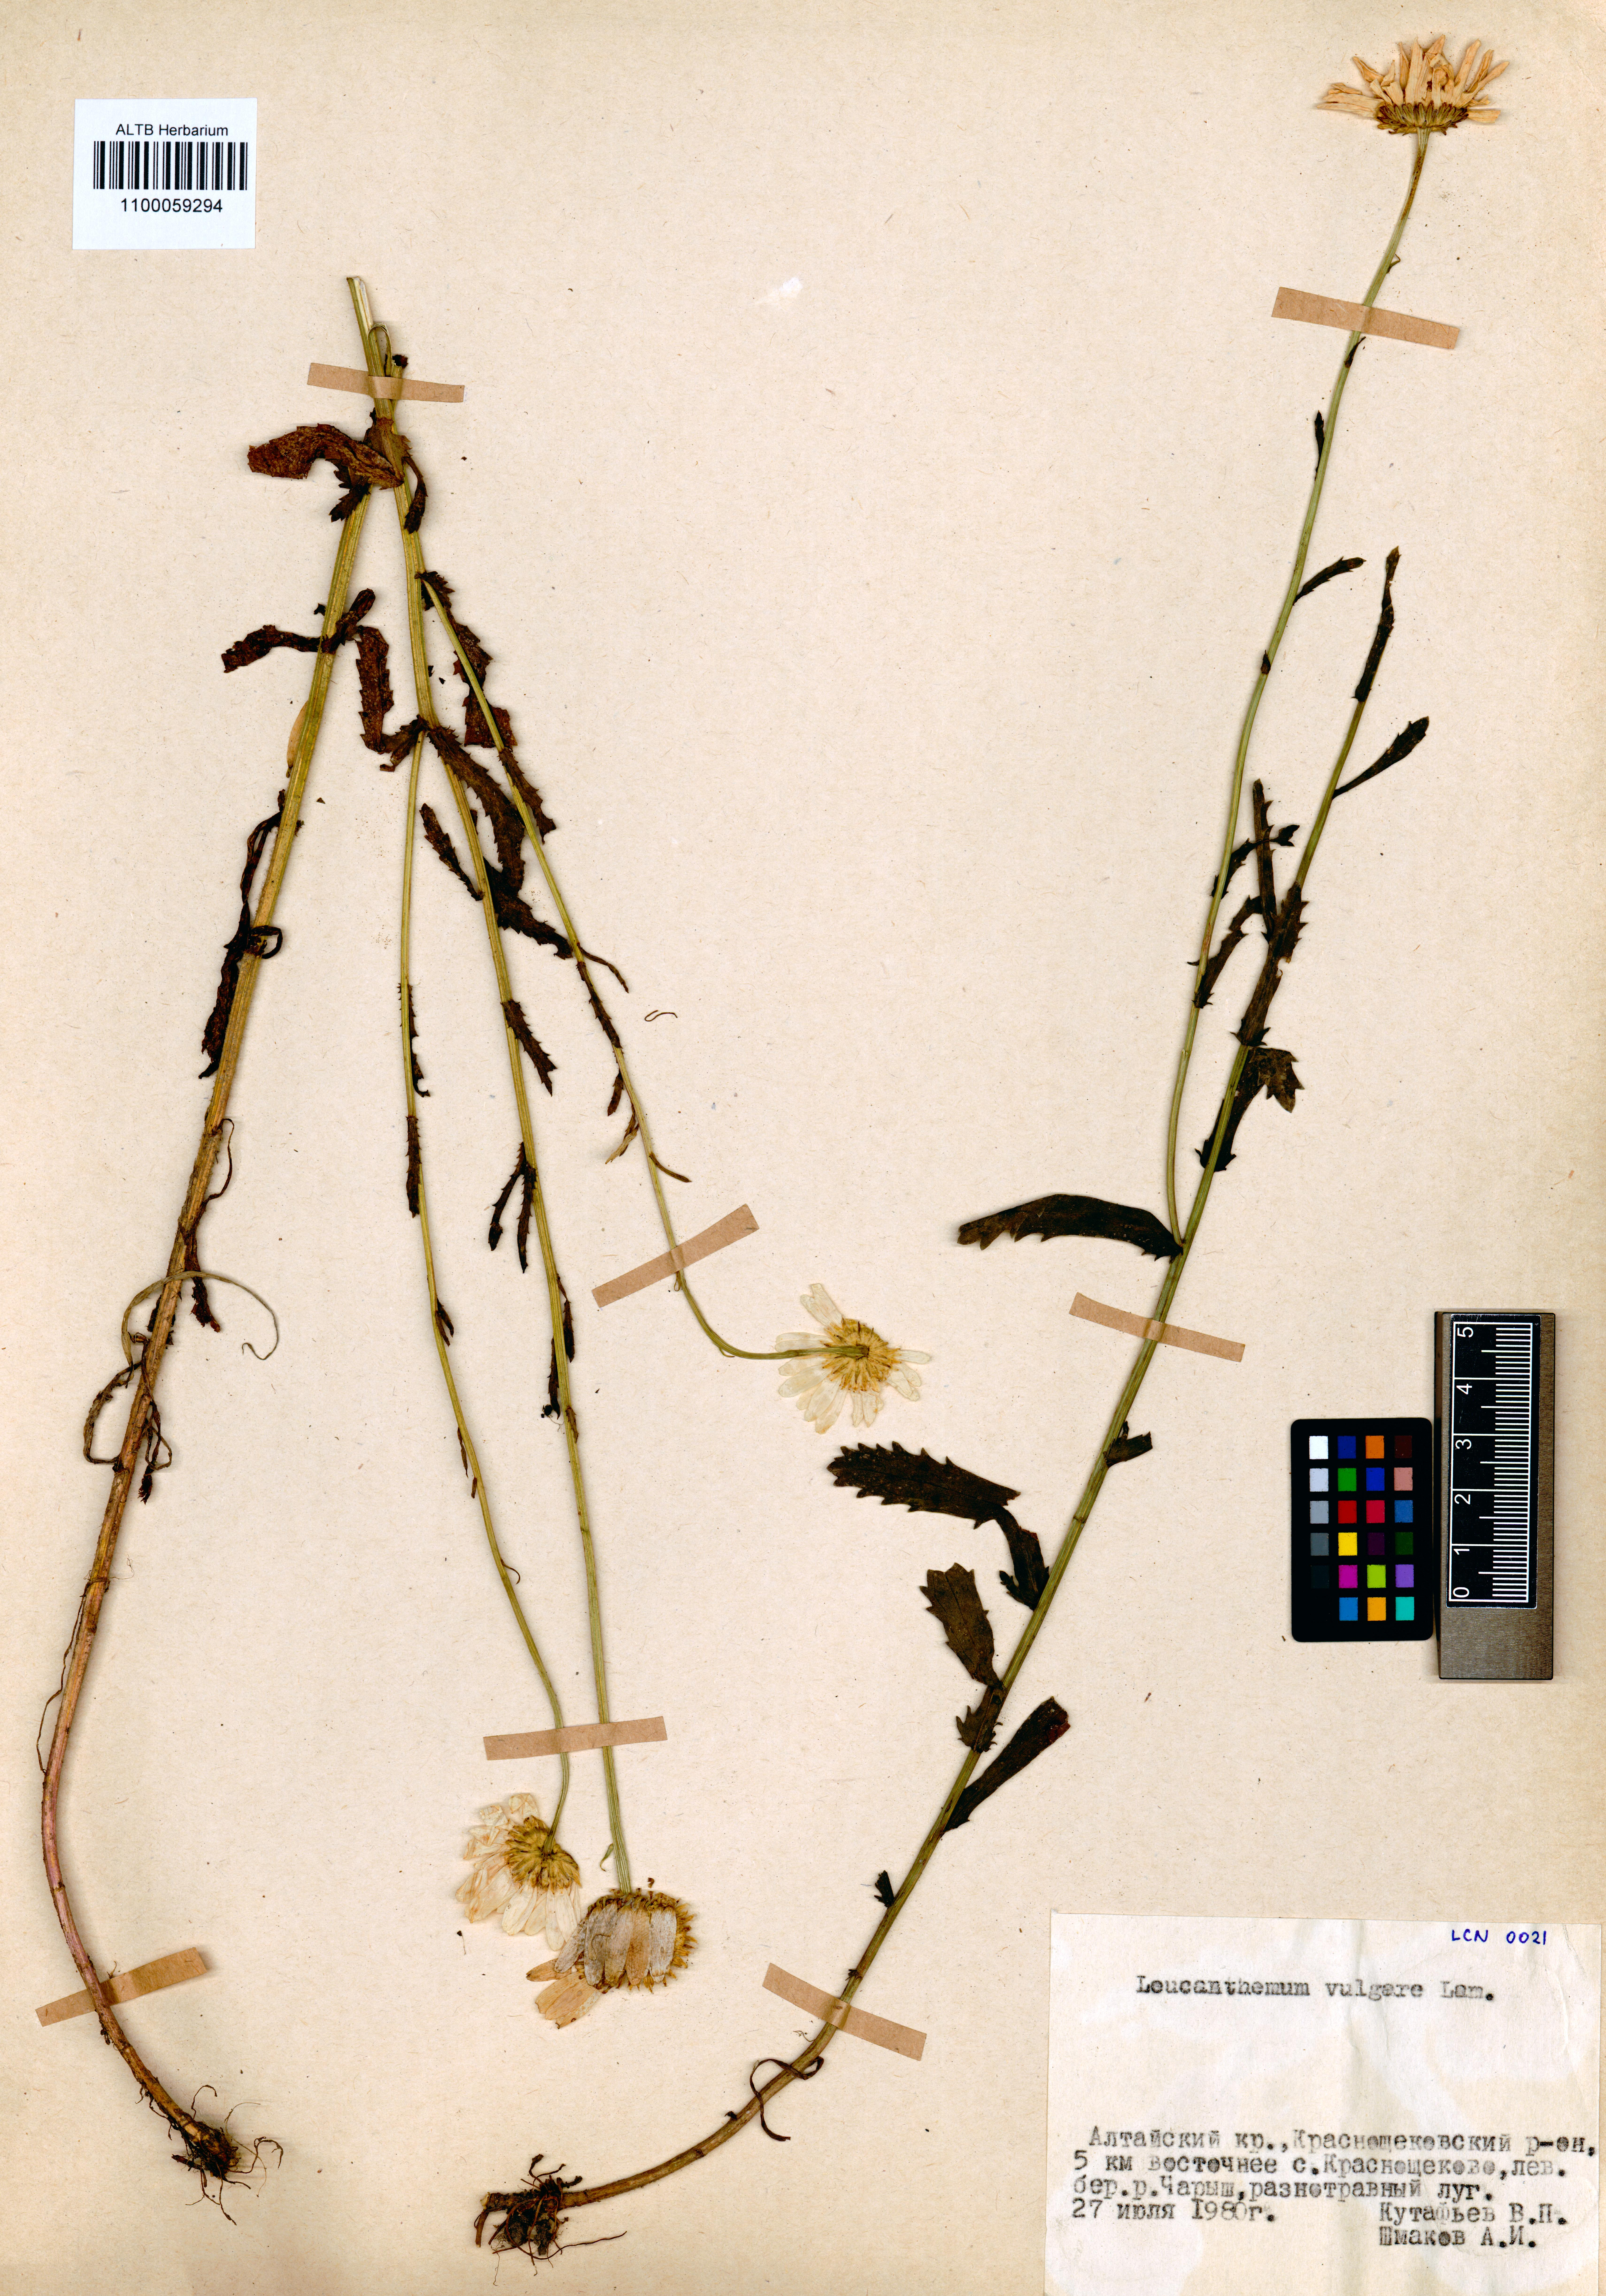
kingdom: Plantae
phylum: Tracheophyta
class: Magnoliopsida
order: Asterales
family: Asteraceae
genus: Leucanthemum
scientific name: Leucanthemum vulgare
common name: Oxeye daisy
